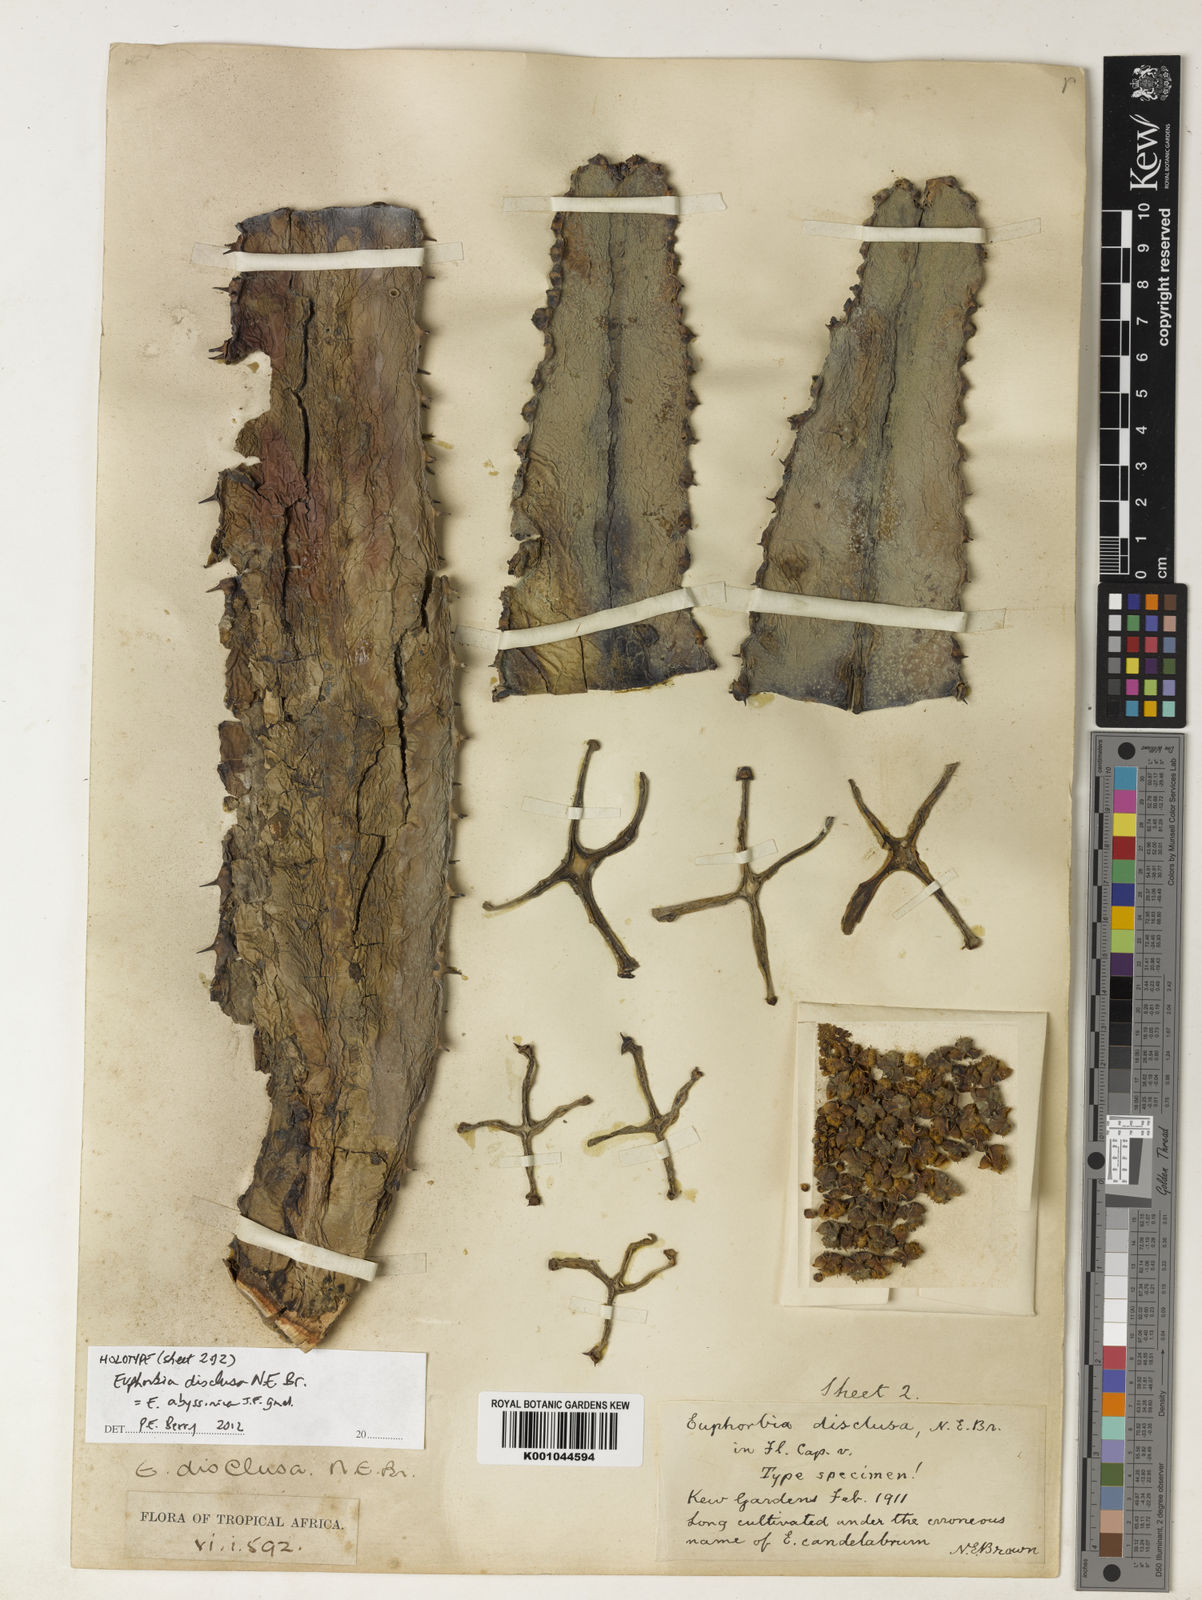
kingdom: Plantae
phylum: Tracheophyta
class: Magnoliopsida
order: Malpighiales
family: Euphorbiaceae
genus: Euphorbia
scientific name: Euphorbia abyssinica
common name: Abyssinian spurge
